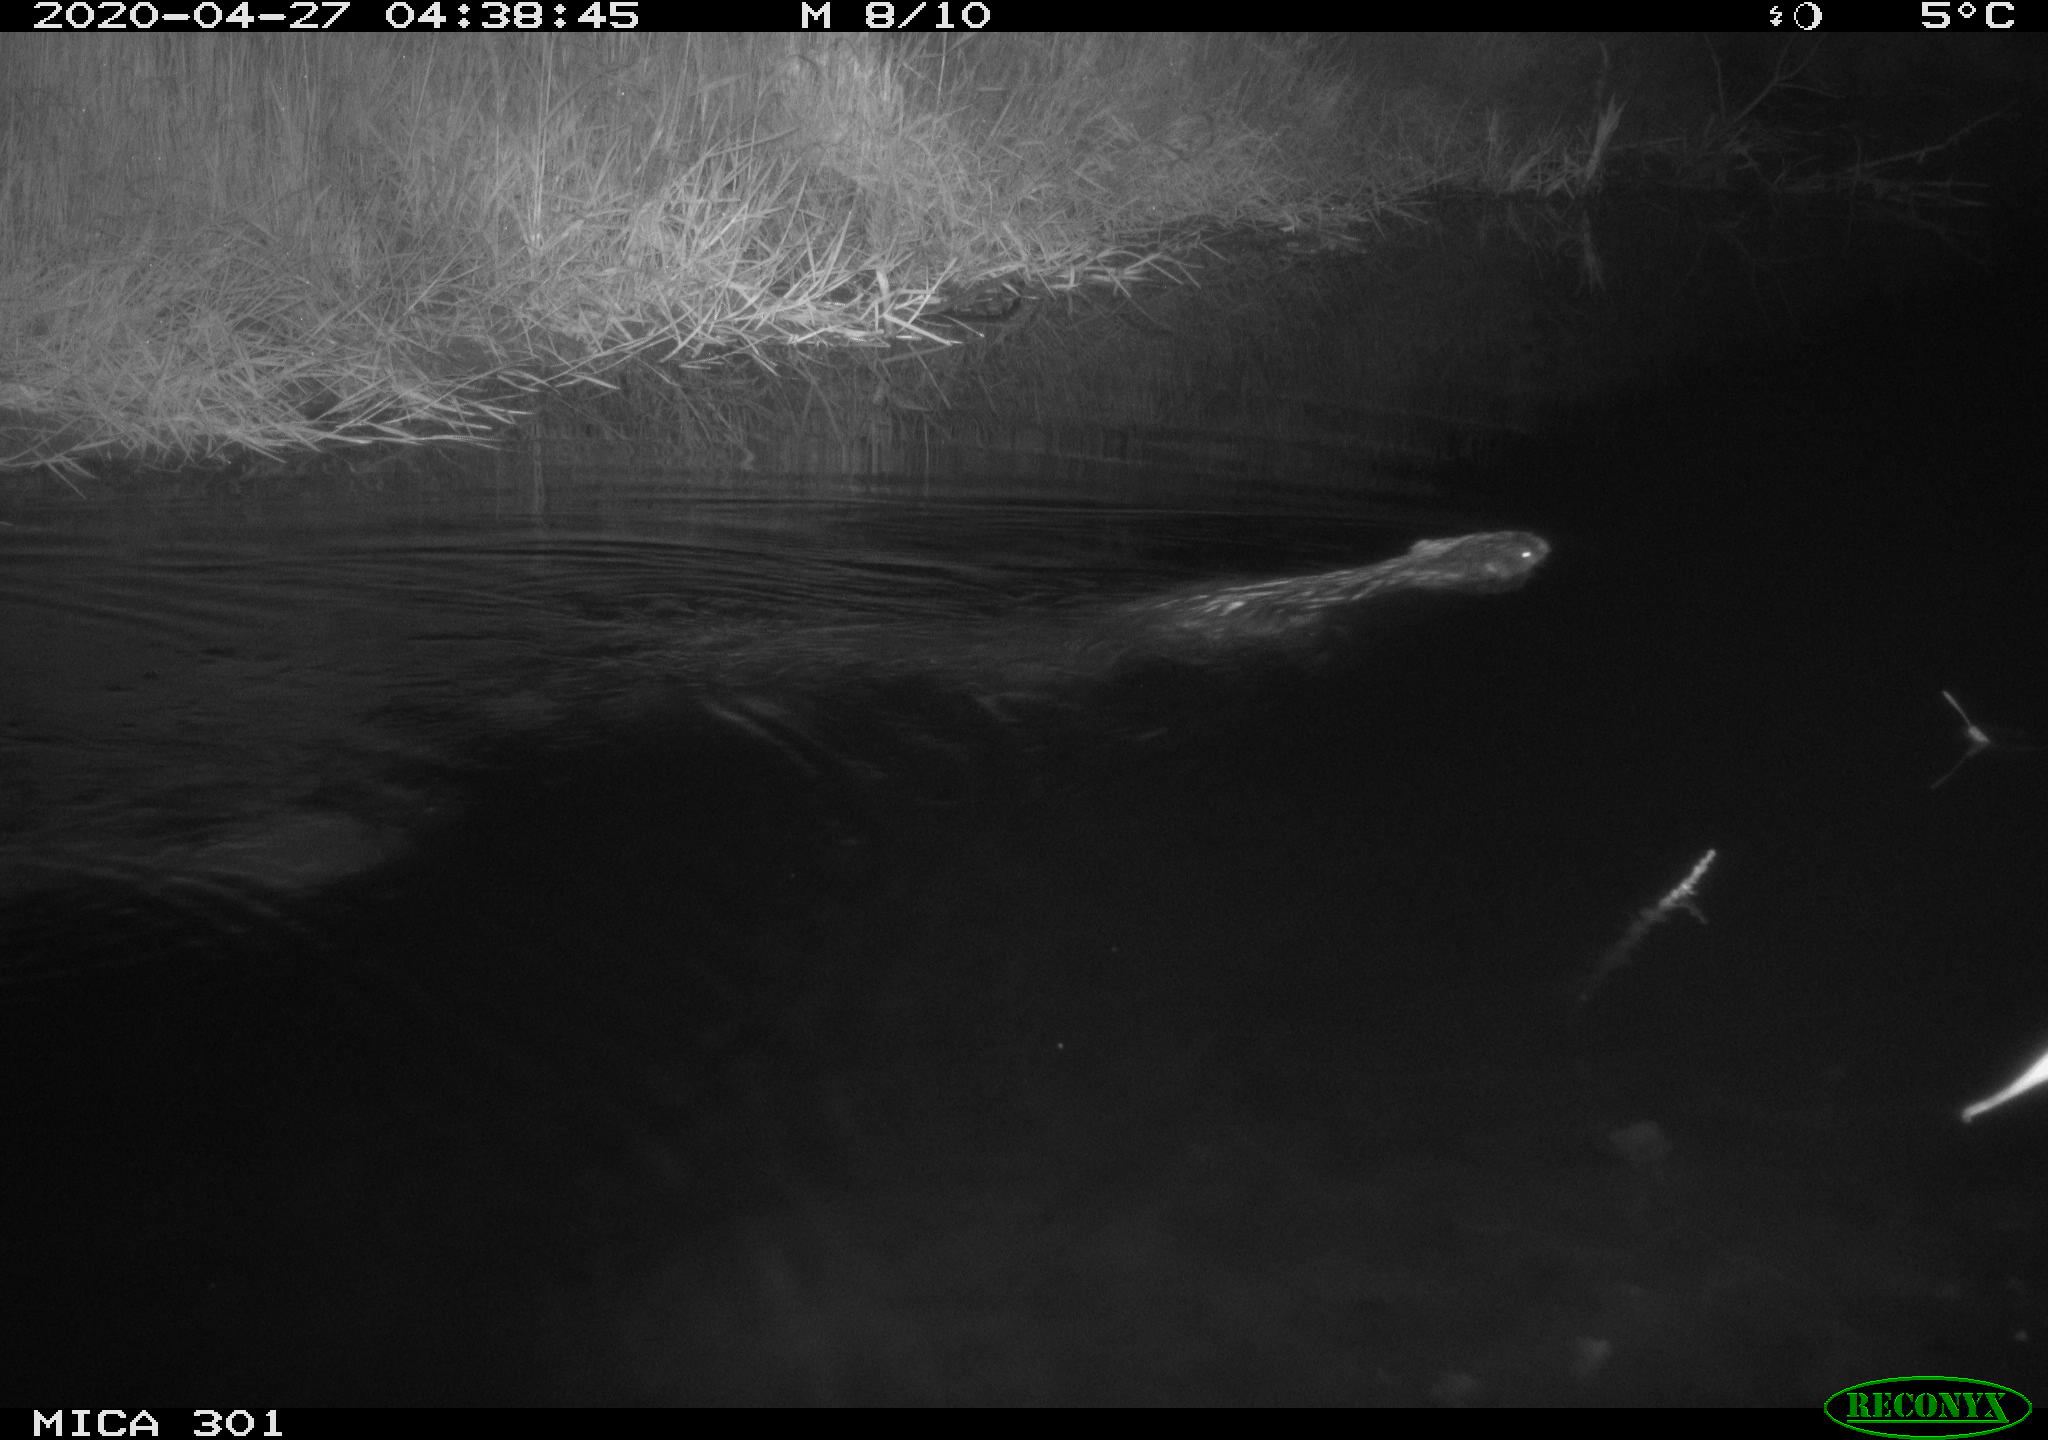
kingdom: Animalia
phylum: Chordata
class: Mammalia
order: Rodentia
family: Castoridae
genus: Castor
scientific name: Castor fiber
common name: Eurasian beaver
